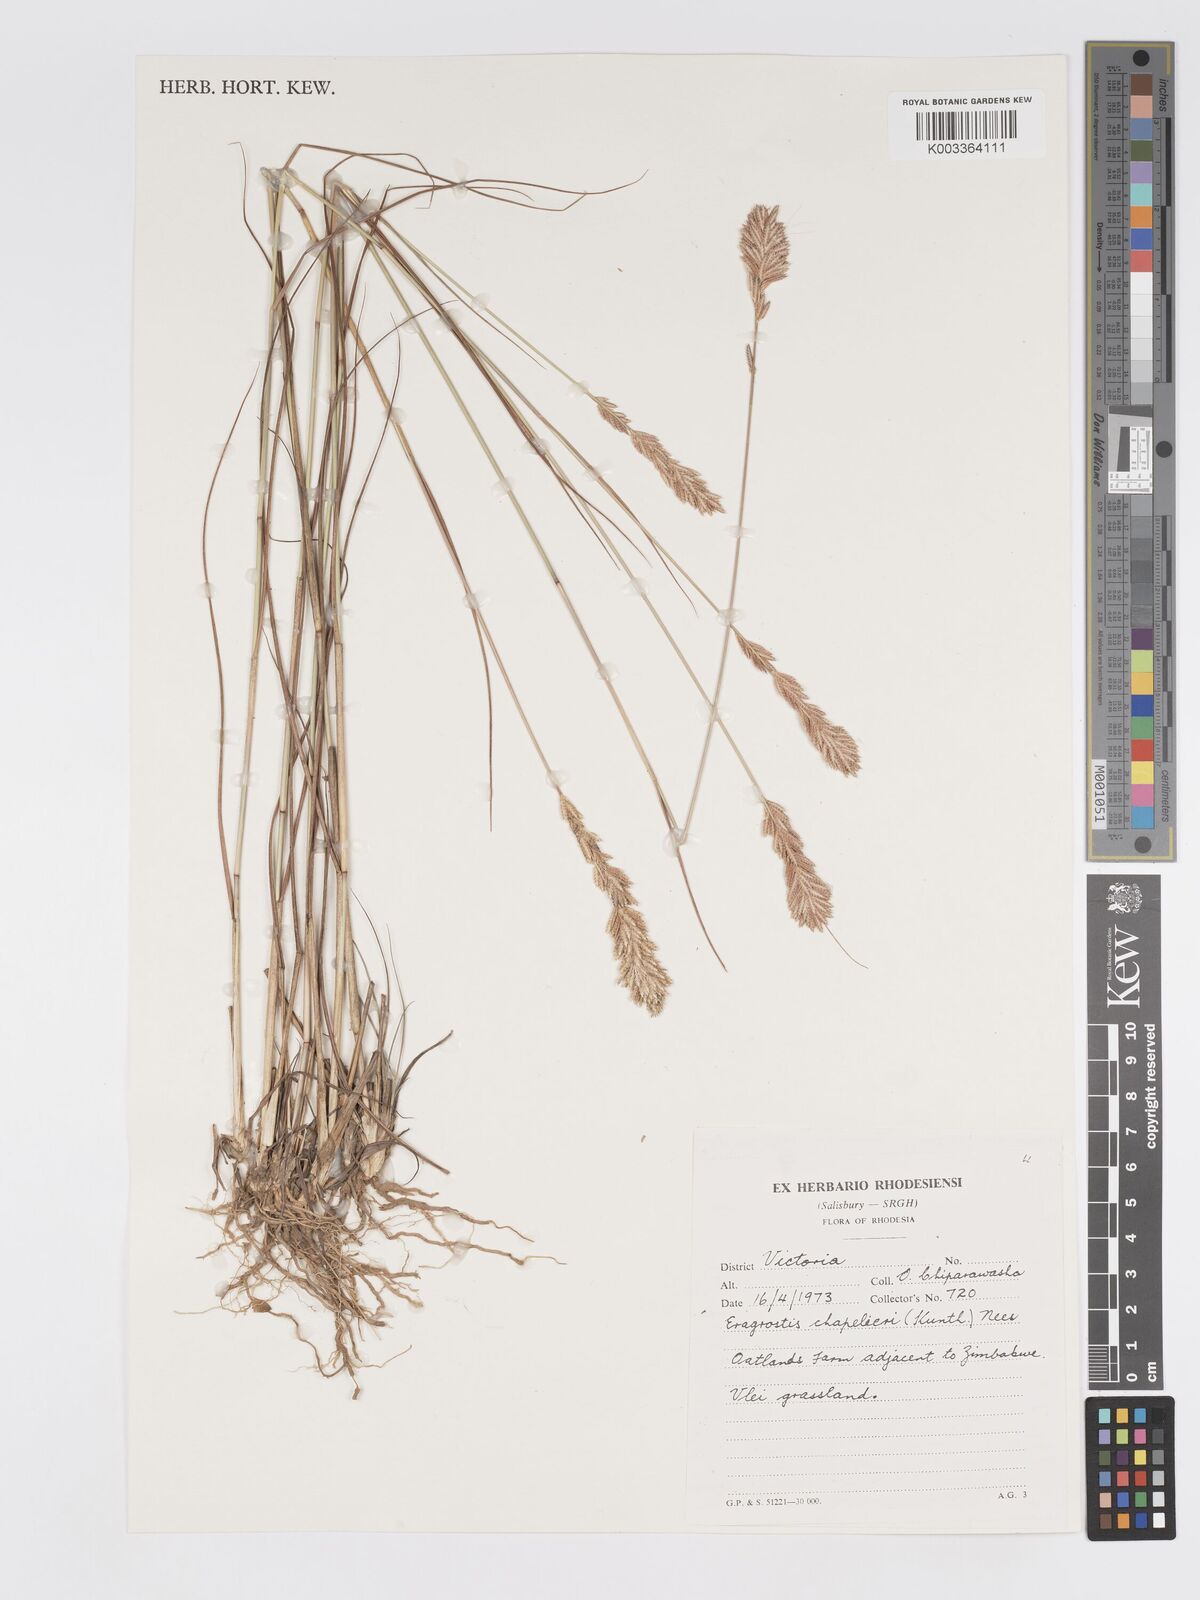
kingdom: Plantae
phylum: Tracheophyta
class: Liliopsida
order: Poales
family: Poaceae
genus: Eragrostis
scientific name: Eragrostis chapelieri
